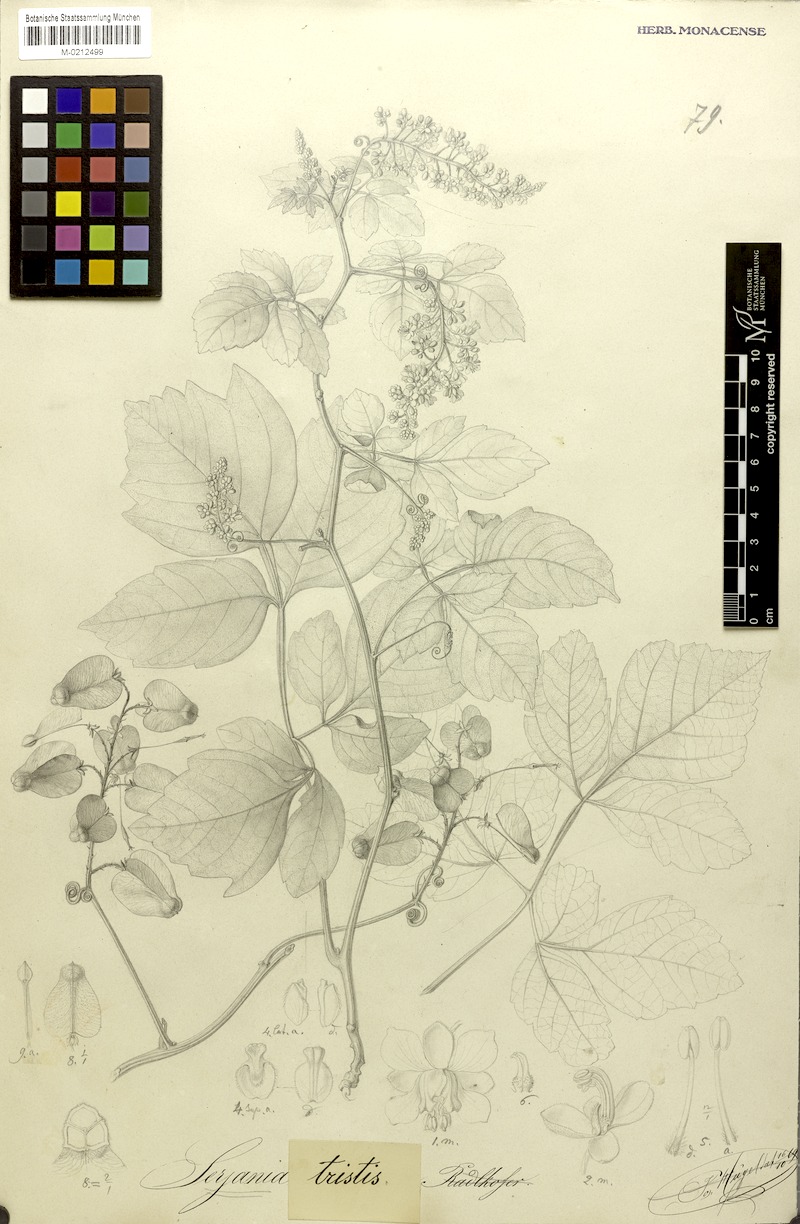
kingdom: Plantae
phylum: Tracheophyta
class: Magnoliopsida
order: Sapindales
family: Sapindaceae
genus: Serjania
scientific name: Serjania tristis
